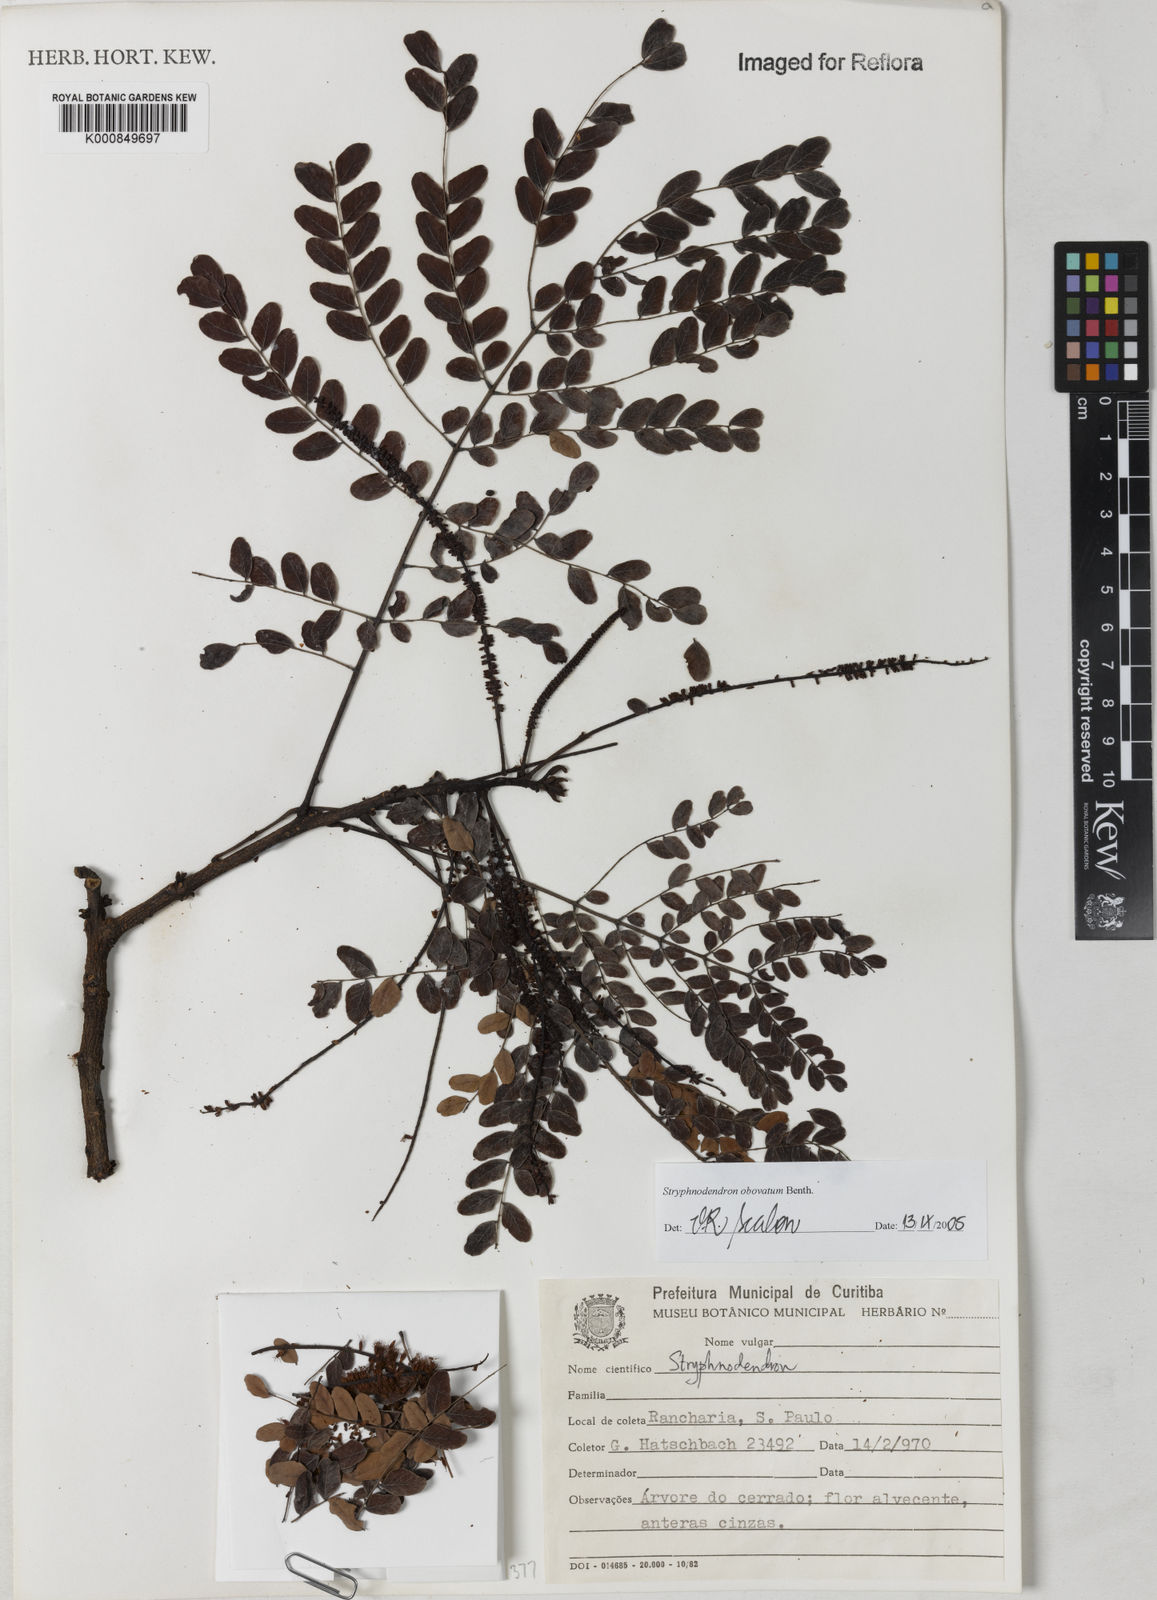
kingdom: Plantae
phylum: Tracheophyta
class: Magnoliopsida
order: Fabales
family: Fabaceae
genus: Stryphnodendron
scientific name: Stryphnodendron rotundifolium
